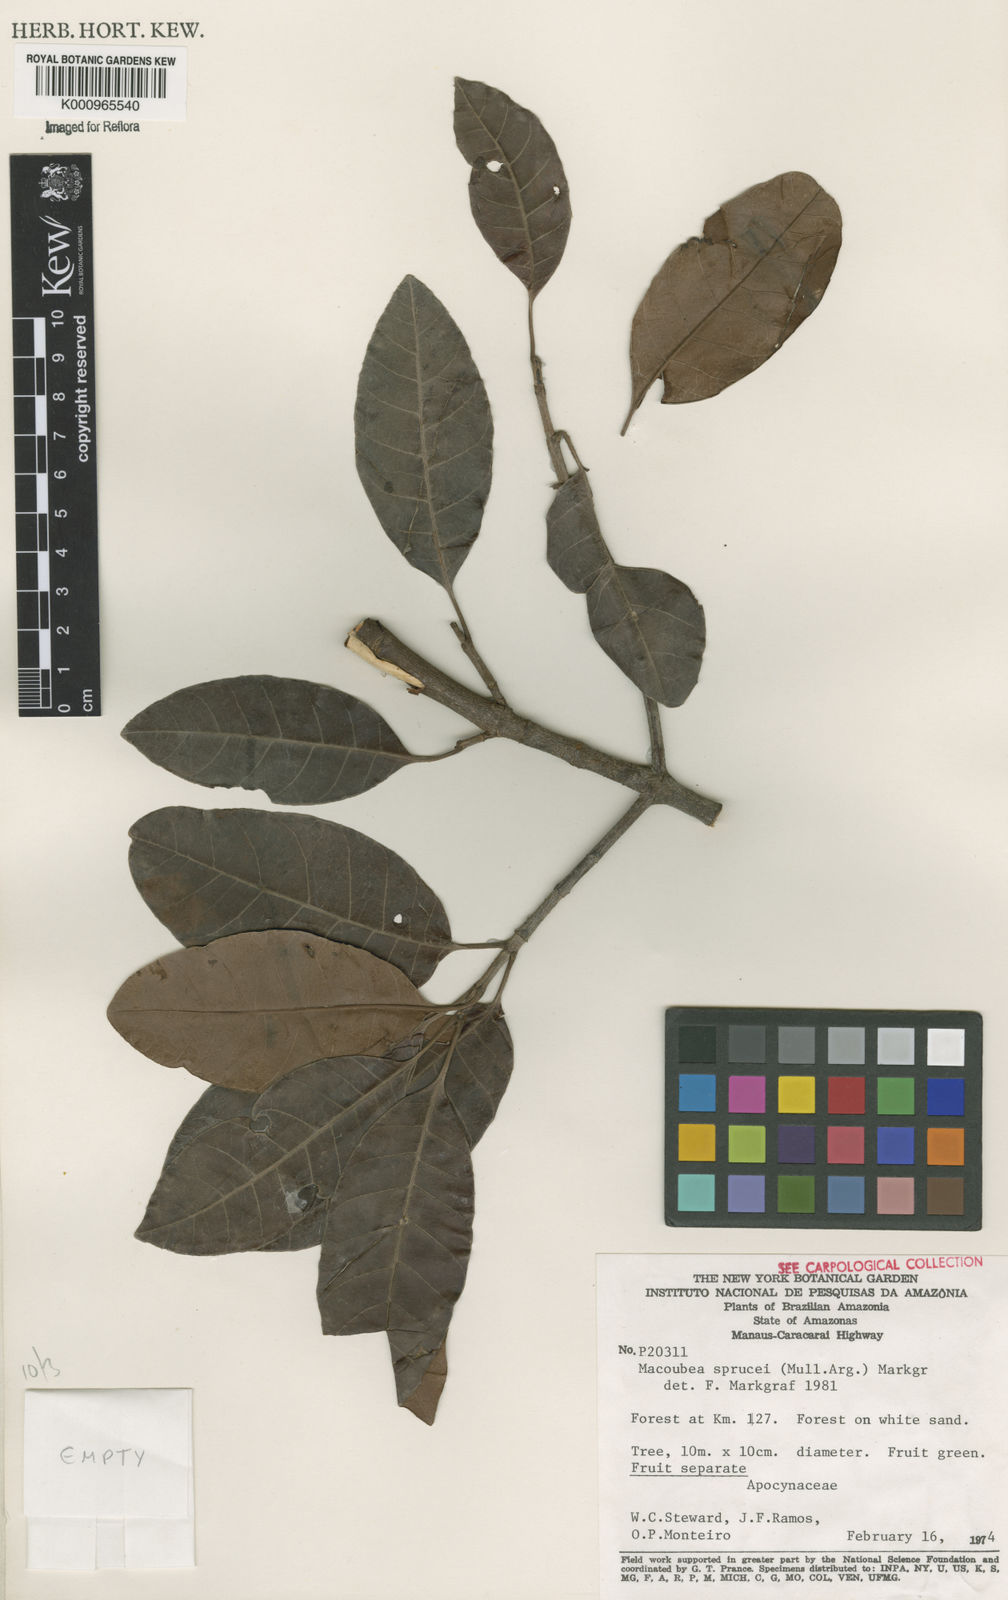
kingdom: Plantae
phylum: Tracheophyta
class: Magnoliopsida
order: Gentianales
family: Apocynaceae
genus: Macoubea
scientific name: Macoubea
